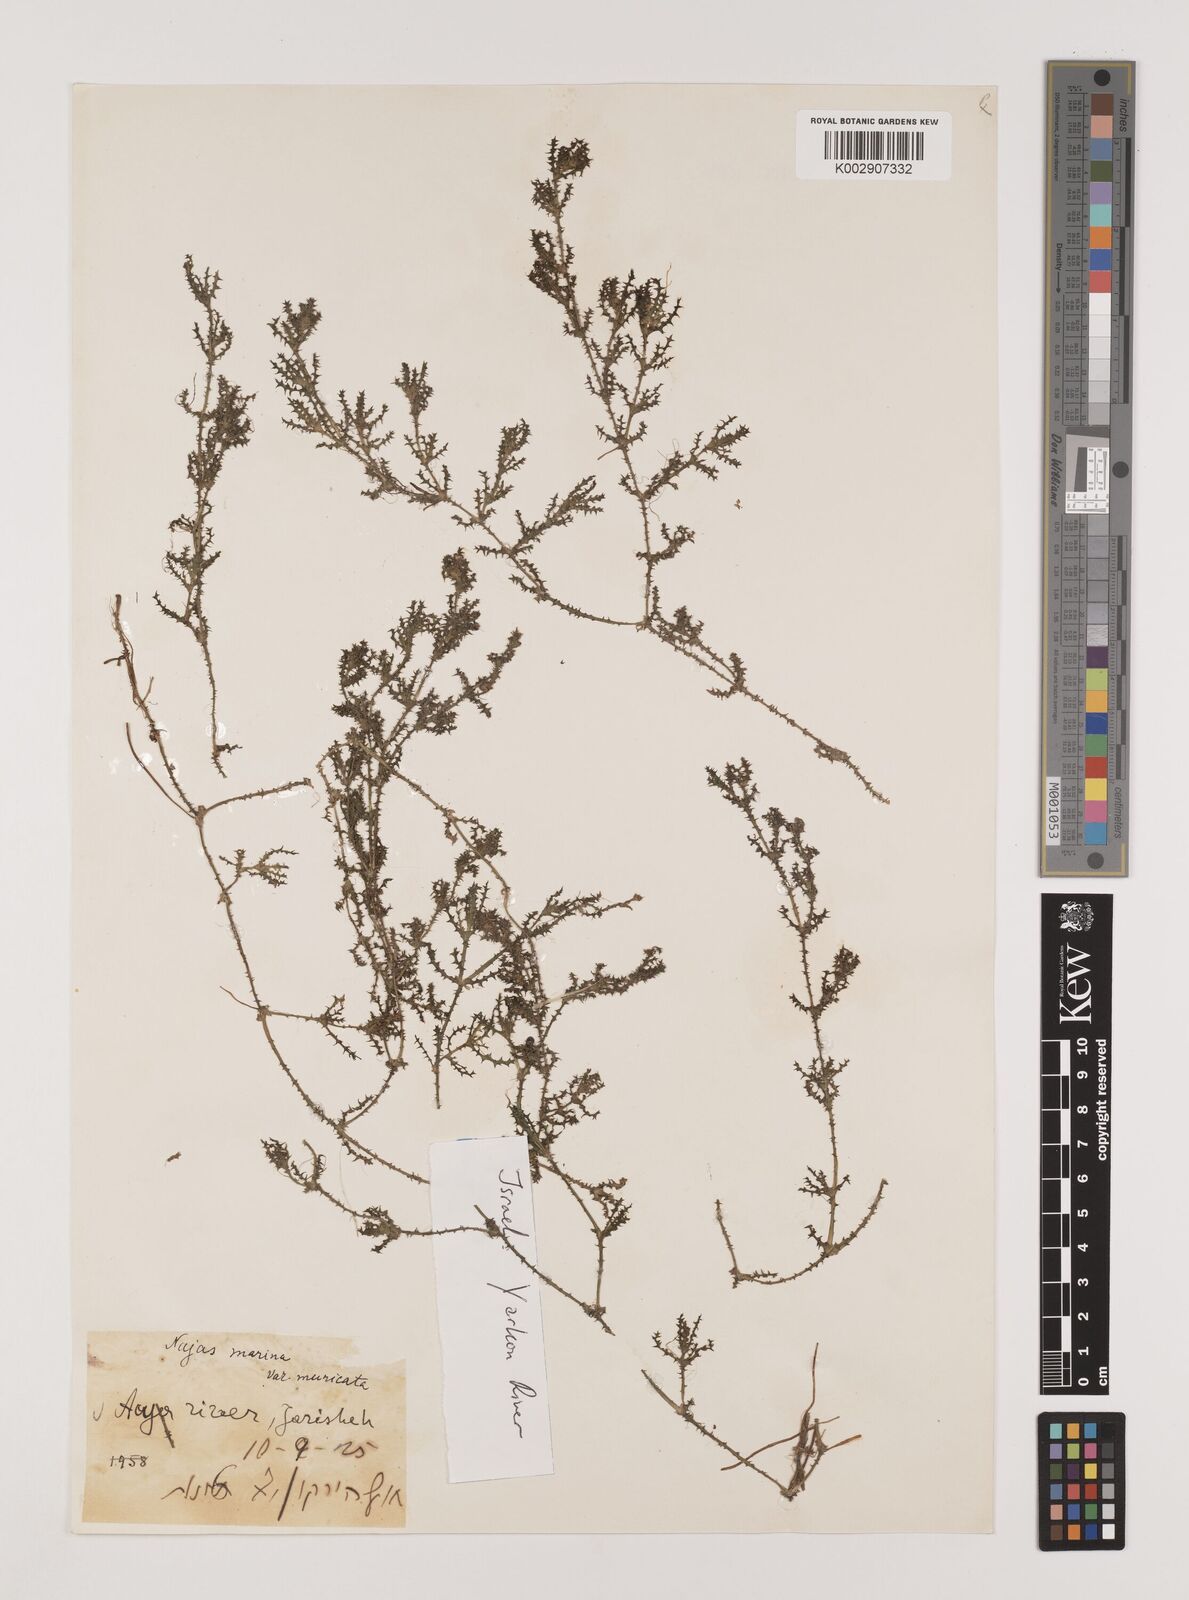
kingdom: Plantae
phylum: Tracheophyta
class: Liliopsida
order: Alismatales
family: Hydrocharitaceae
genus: Najas
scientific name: Najas marina
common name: Holly-leaved naiad
